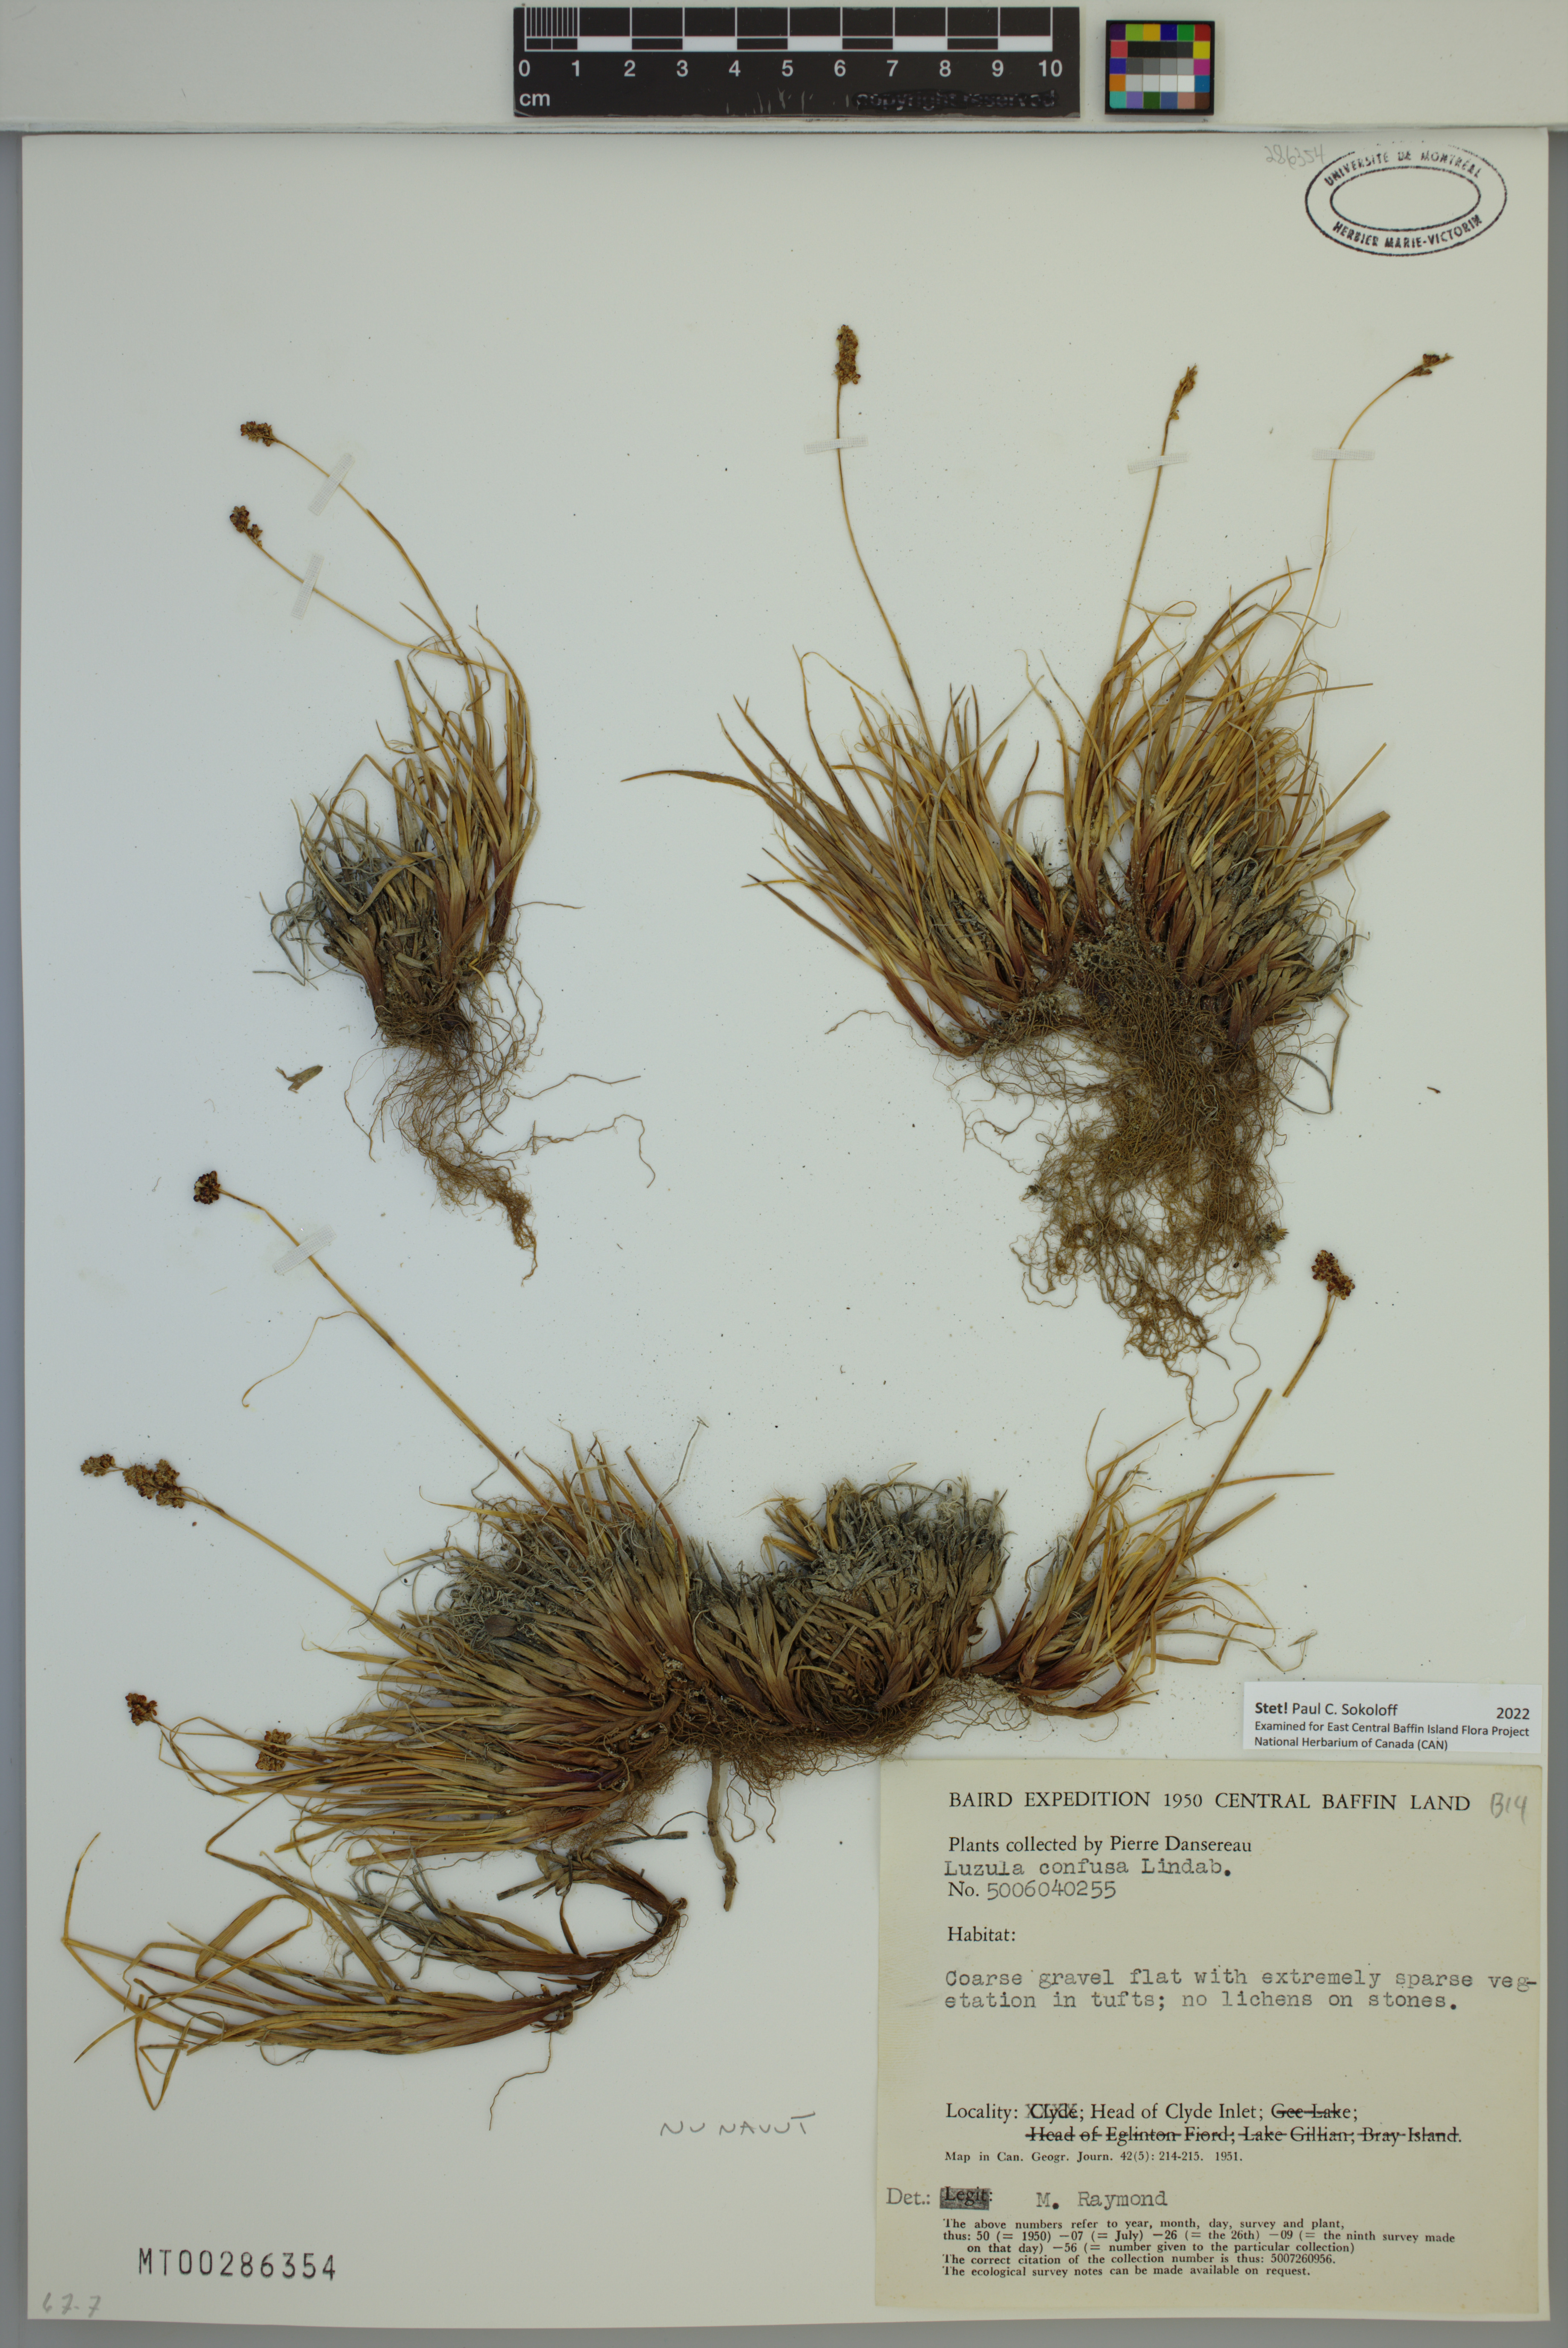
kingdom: Plantae
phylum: Tracheophyta
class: Liliopsida
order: Poales
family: Juncaceae
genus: Luzula
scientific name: Luzula confusa
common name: Northern wood rush
